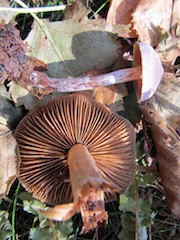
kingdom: Fungi
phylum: Basidiomycota
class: Agaricomycetes
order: Agaricales
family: Cortinariaceae
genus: Cortinarius
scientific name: Cortinarius hemitrichus
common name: hvidfnugget slørhat
